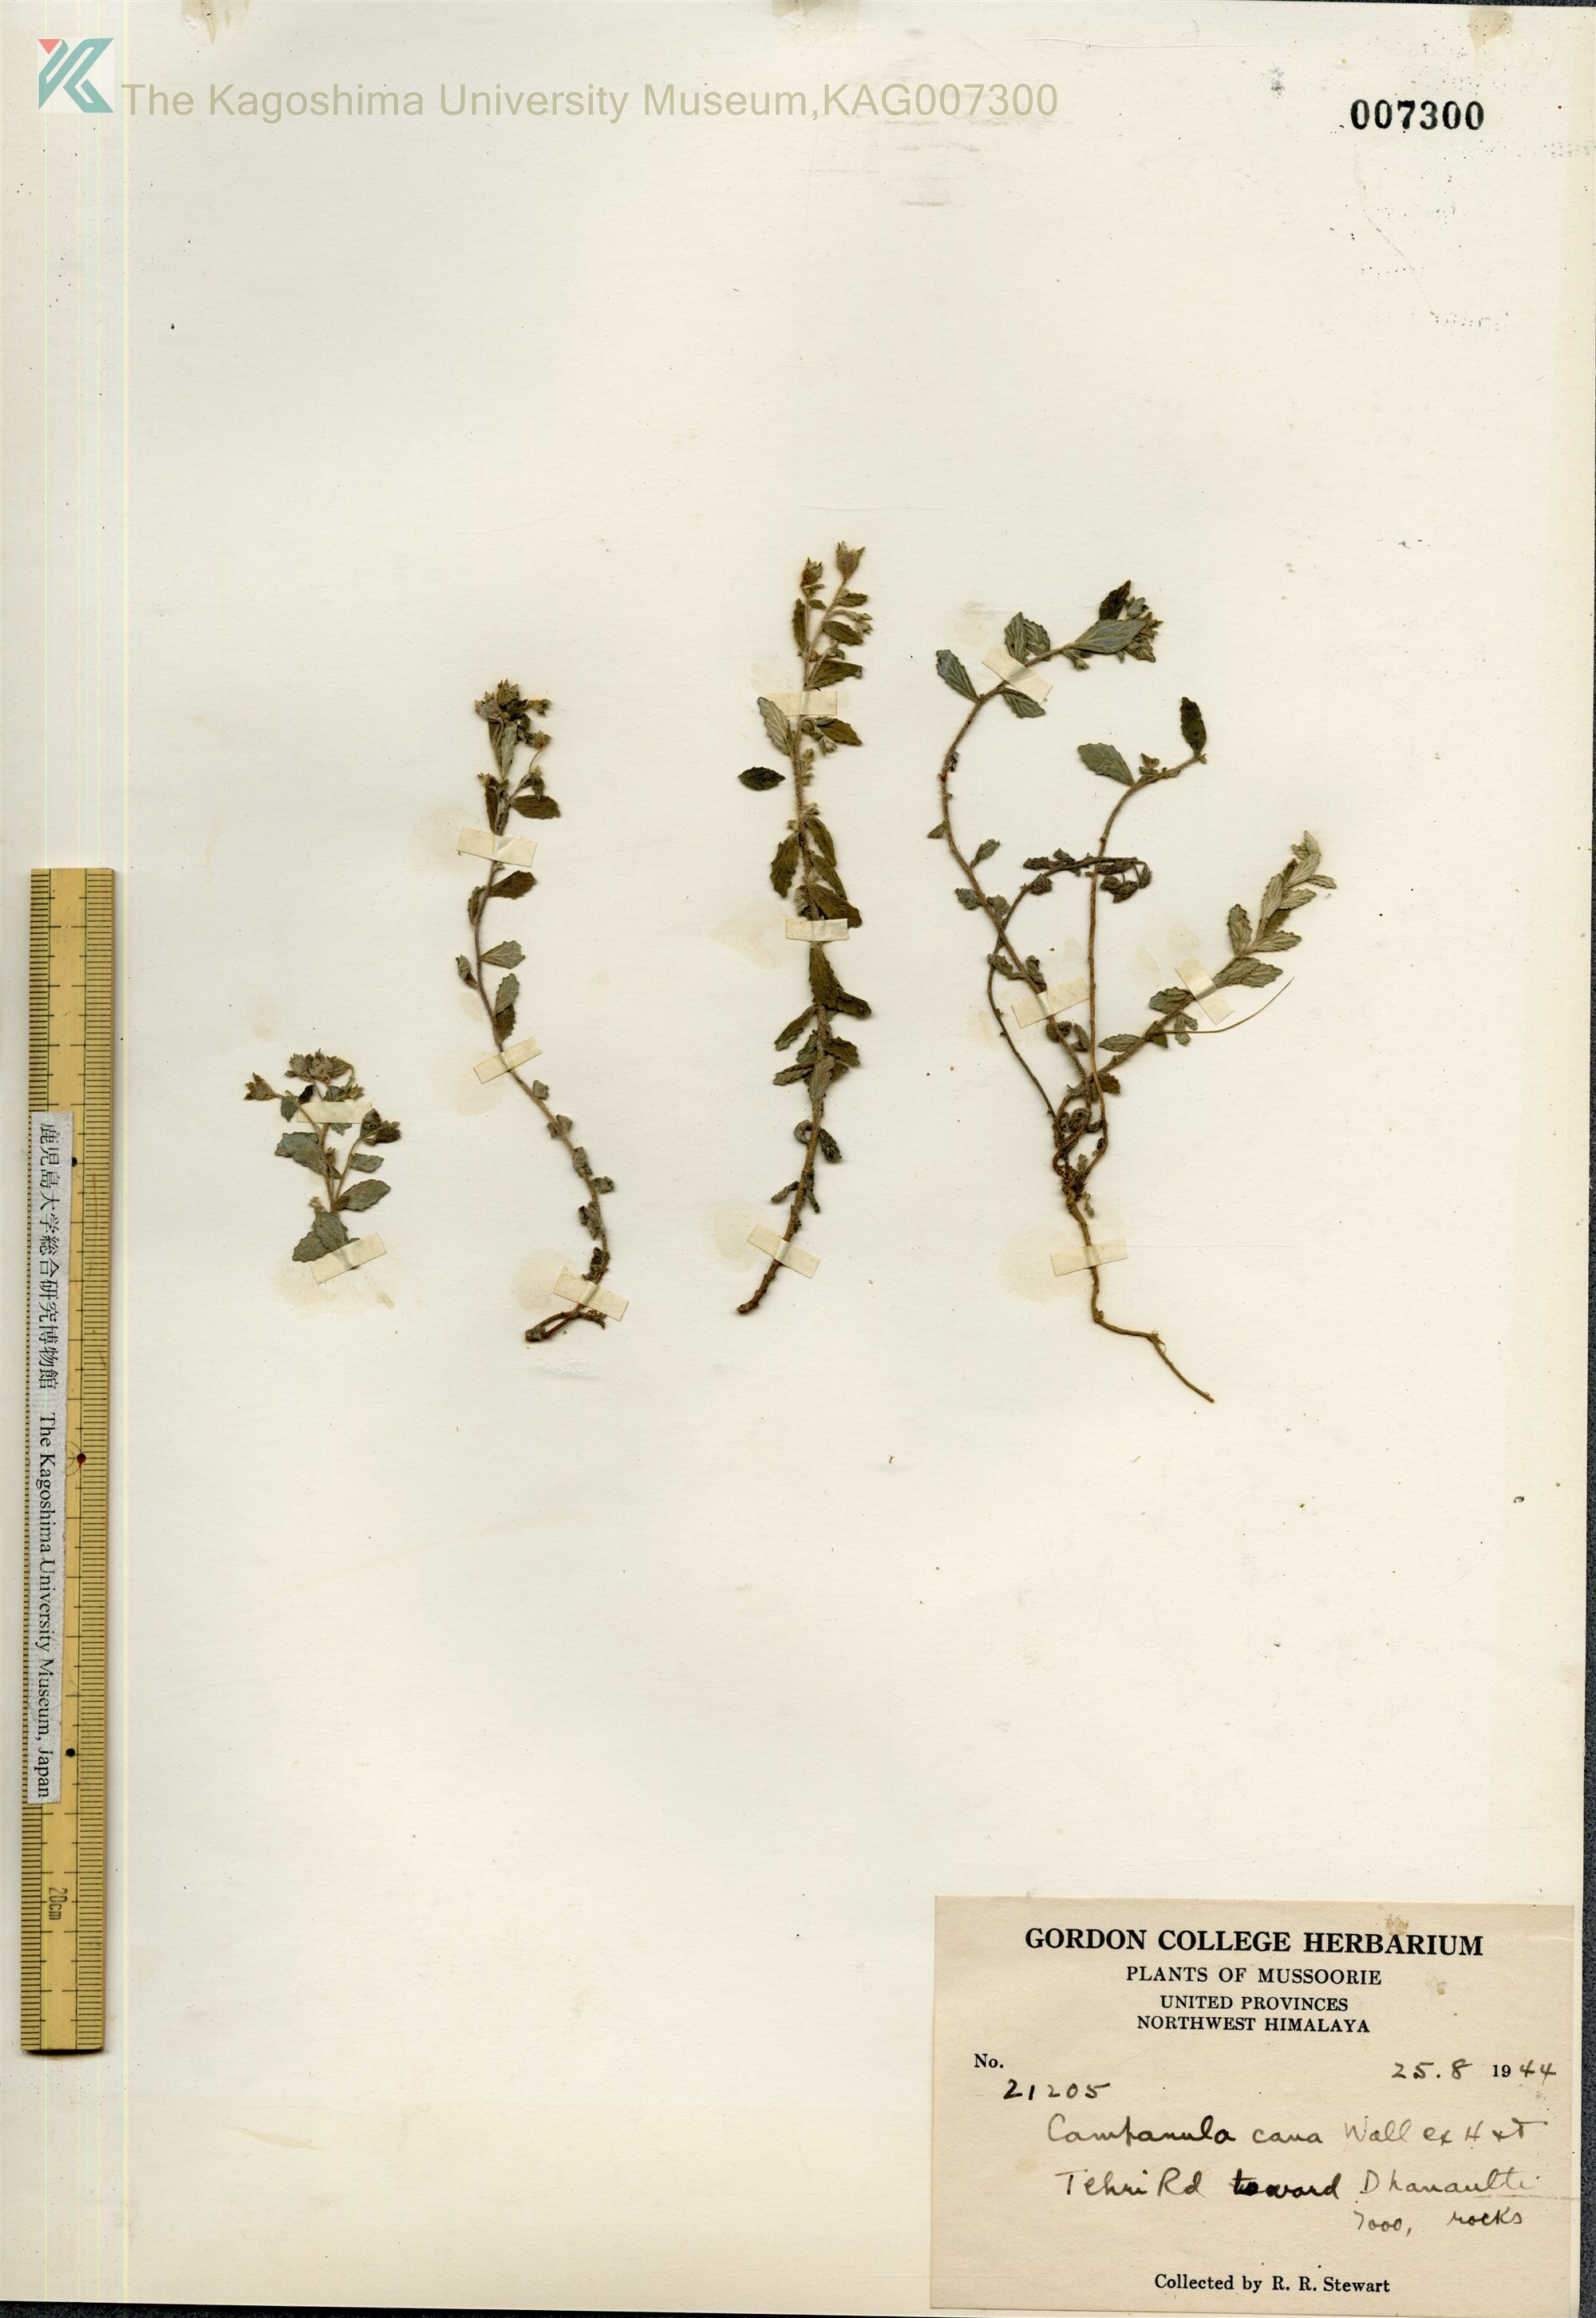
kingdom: Plantae
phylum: Tracheophyta
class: Magnoliopsida
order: Asterales
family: Campanulaceae
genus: Campanula
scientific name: Campanula cana
